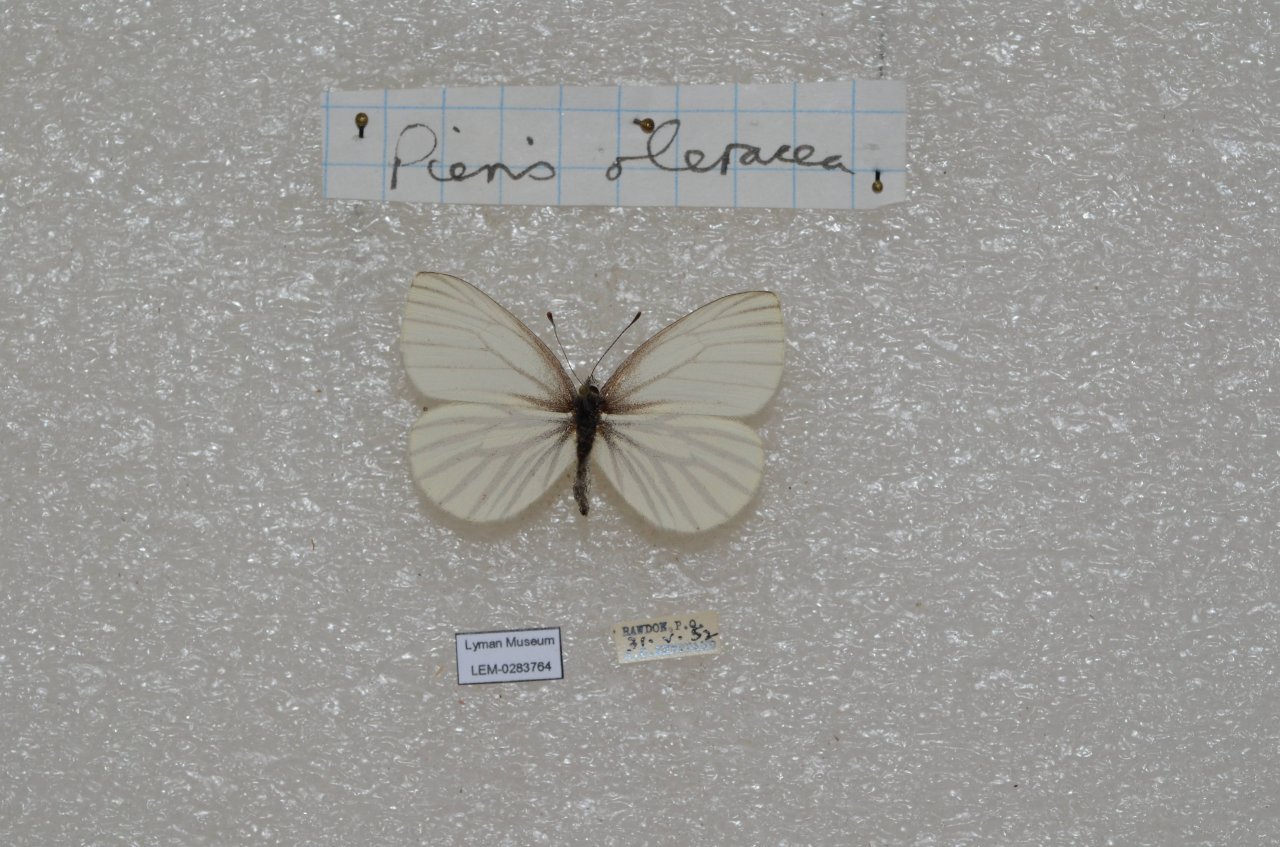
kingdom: Animalia
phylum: Arthropoda
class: Insecta
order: Lepidoptera
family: Pieridae
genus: Pieris
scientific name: Pieris oleracea
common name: Mustard White
